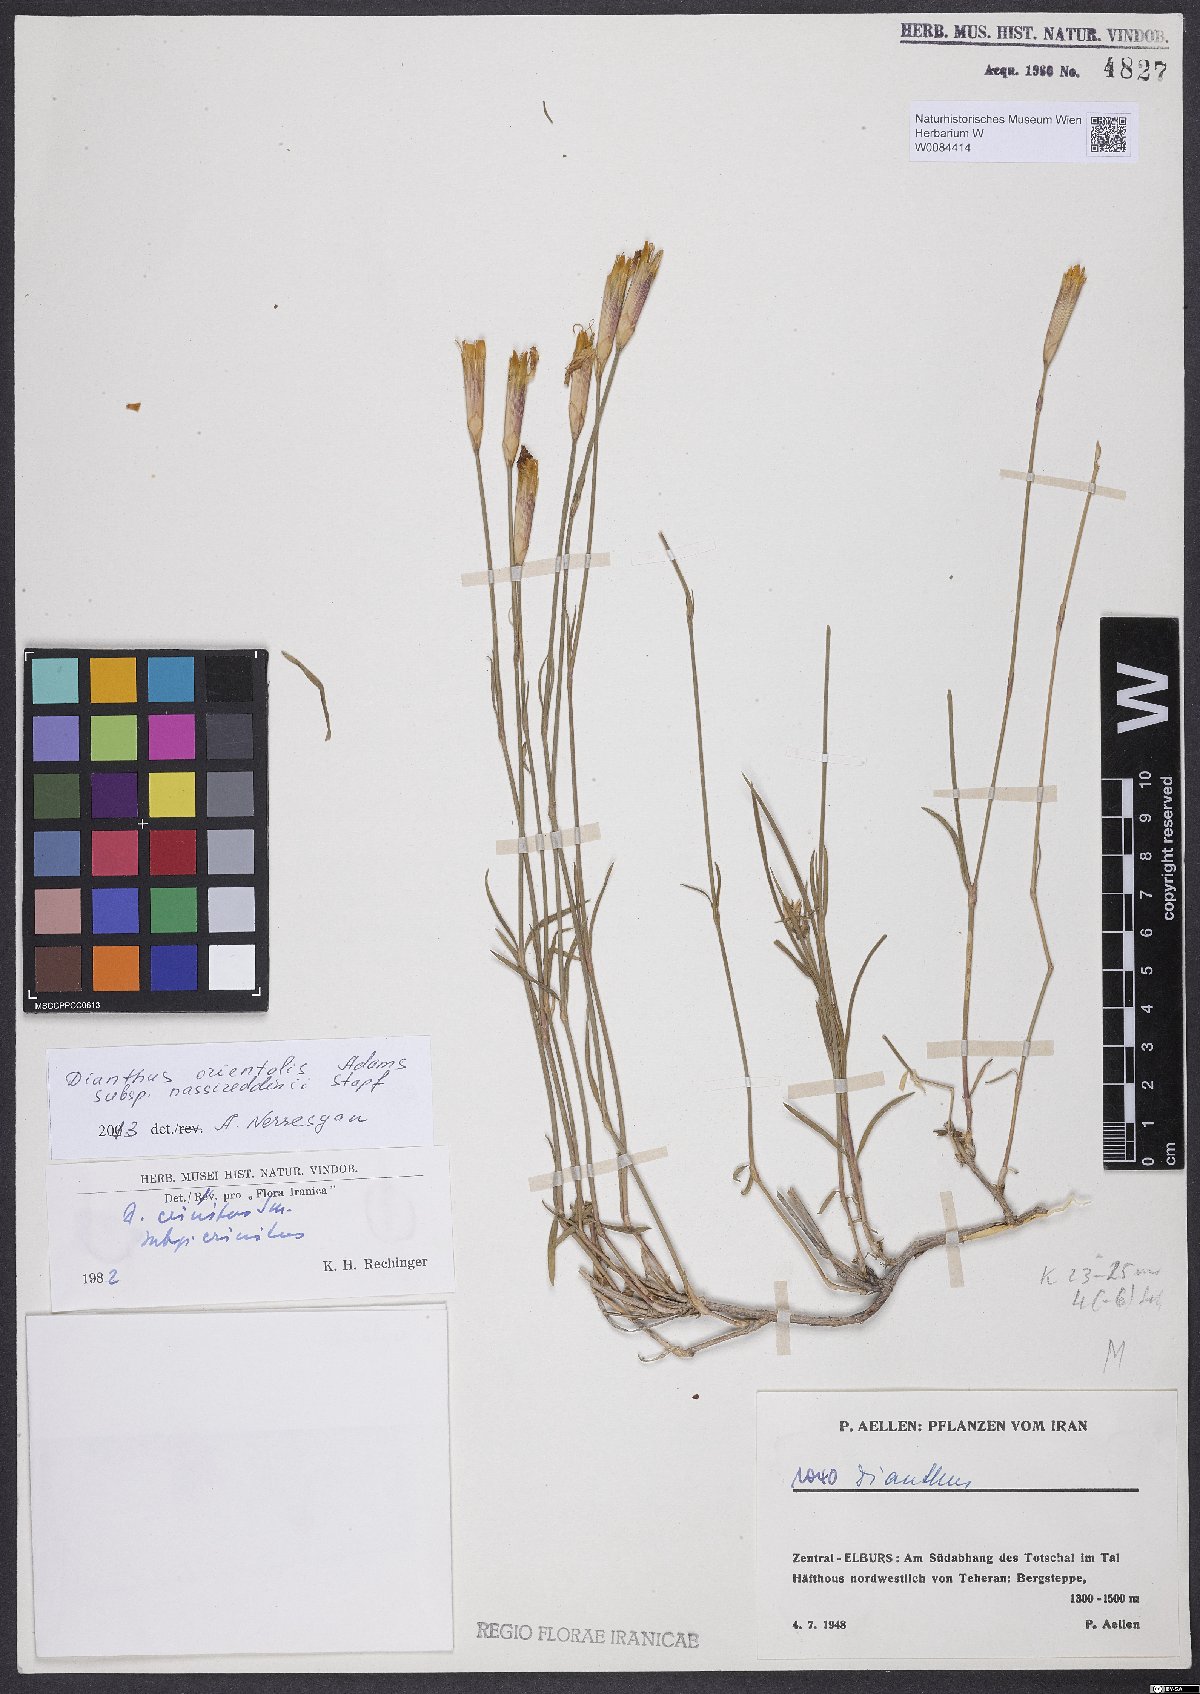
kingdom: Plantae
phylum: Tracheophyta
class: Magnoliopsida
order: Caryophyllales
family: Caryophyllaceae
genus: Dianthus
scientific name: Dianthus orientalis
